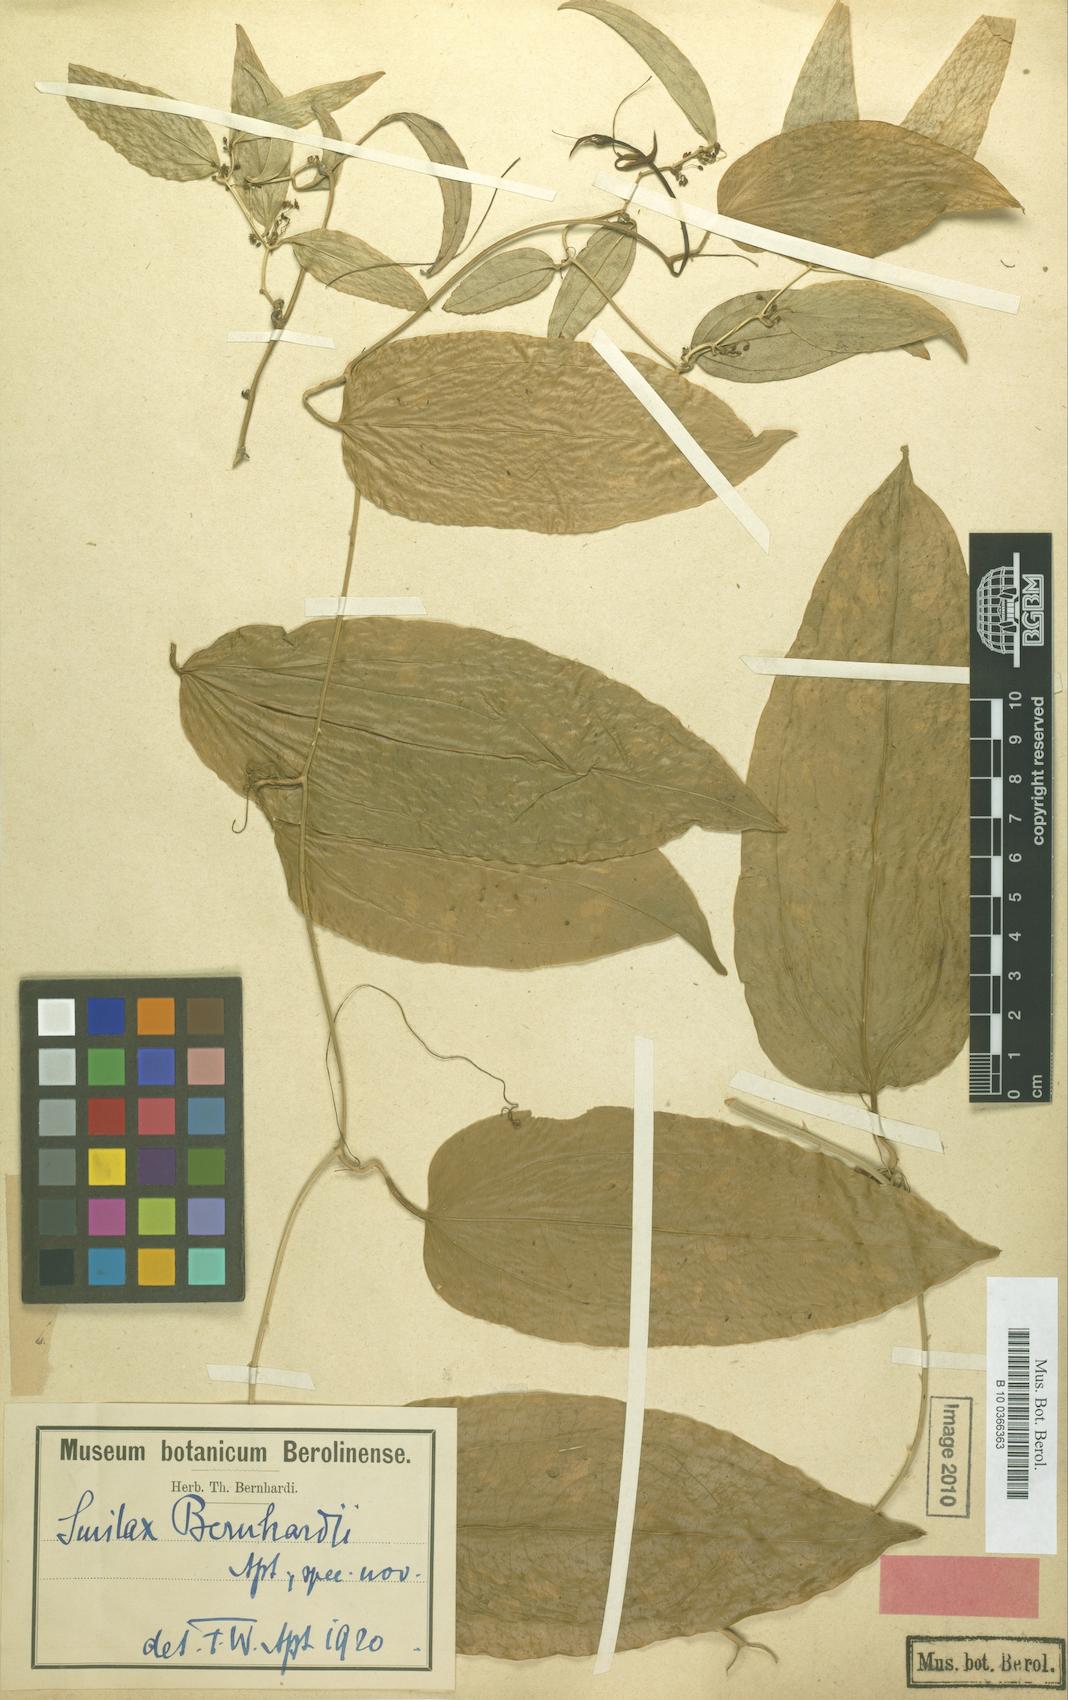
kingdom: Plantae
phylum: Tracheophyta
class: Liliopsida
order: Liliales
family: Smilacaceae
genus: Smilax
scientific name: Smilax officinalis
